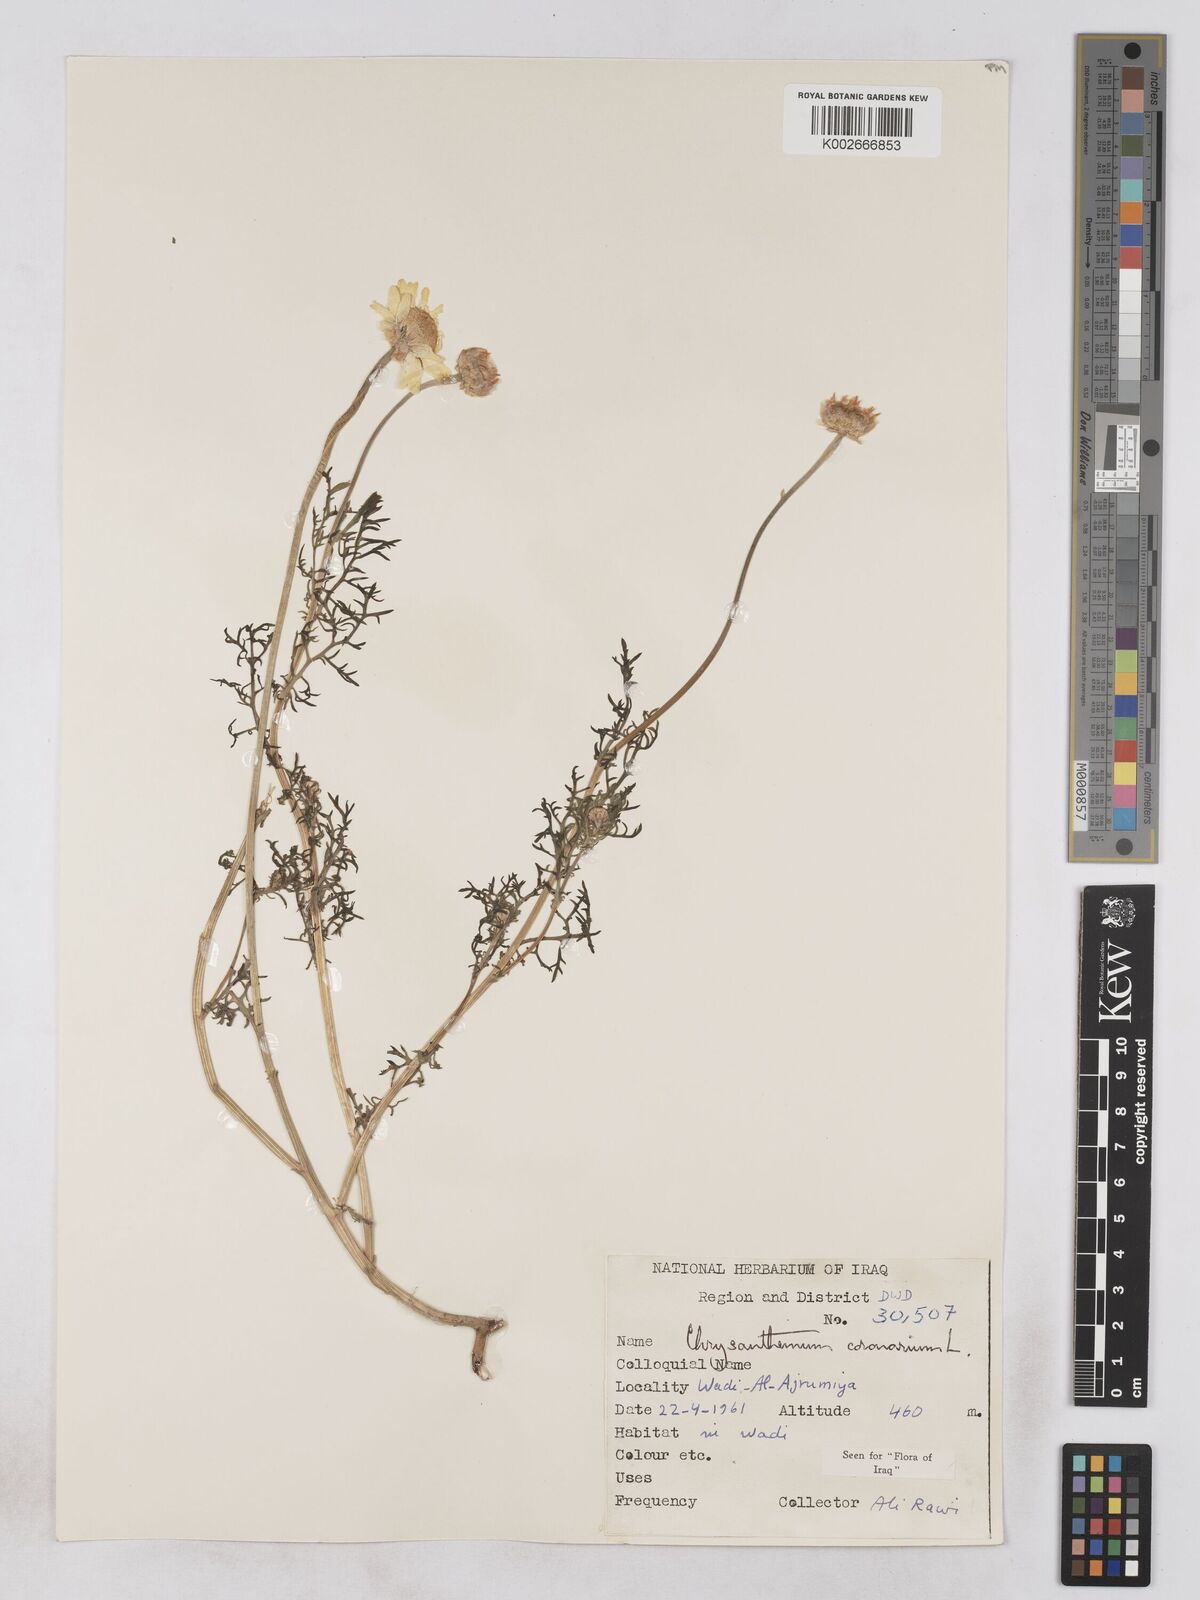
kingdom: Plantae
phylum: Tracheophyta
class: Magnoliopsida
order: Asterales
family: Asteraceae
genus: Glebionis
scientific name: Glebionis coronaria
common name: Crowndaisy
